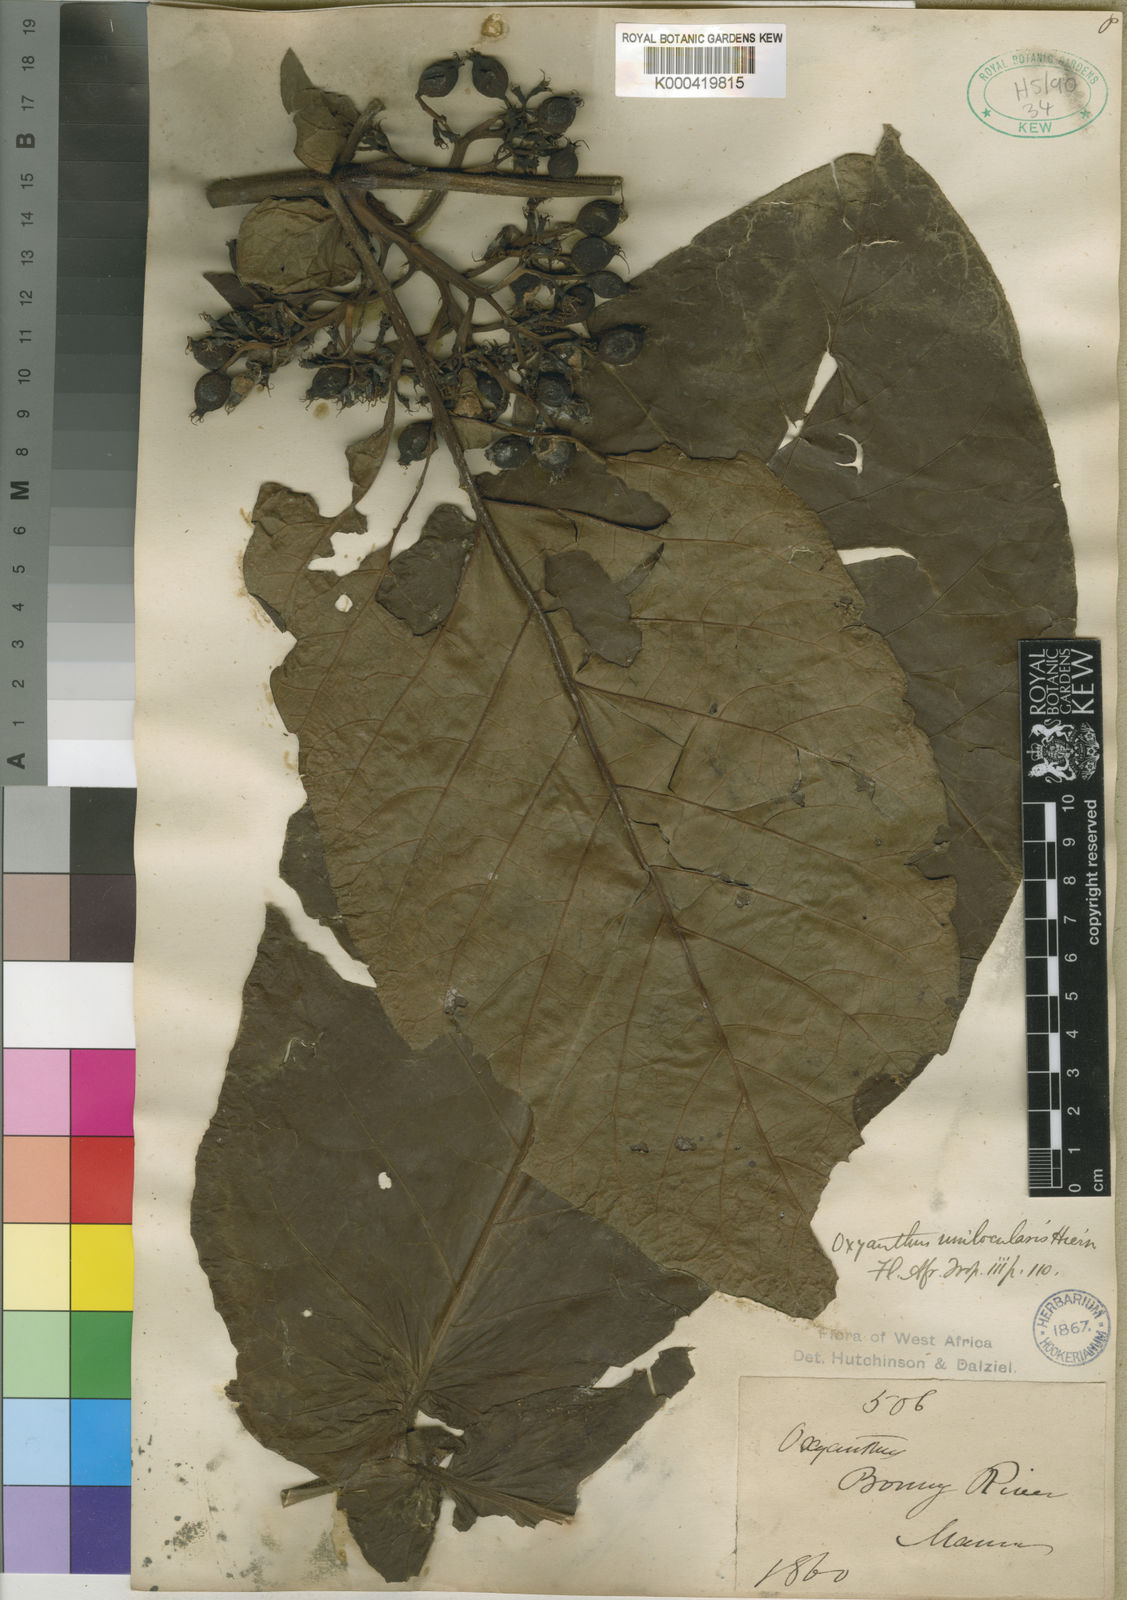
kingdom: Plantae
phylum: Tracheophyta
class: Magnoliopsida
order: Gentianales
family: Rubiaceae
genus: Oxyanthus
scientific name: Oxyanthus unilocularis
